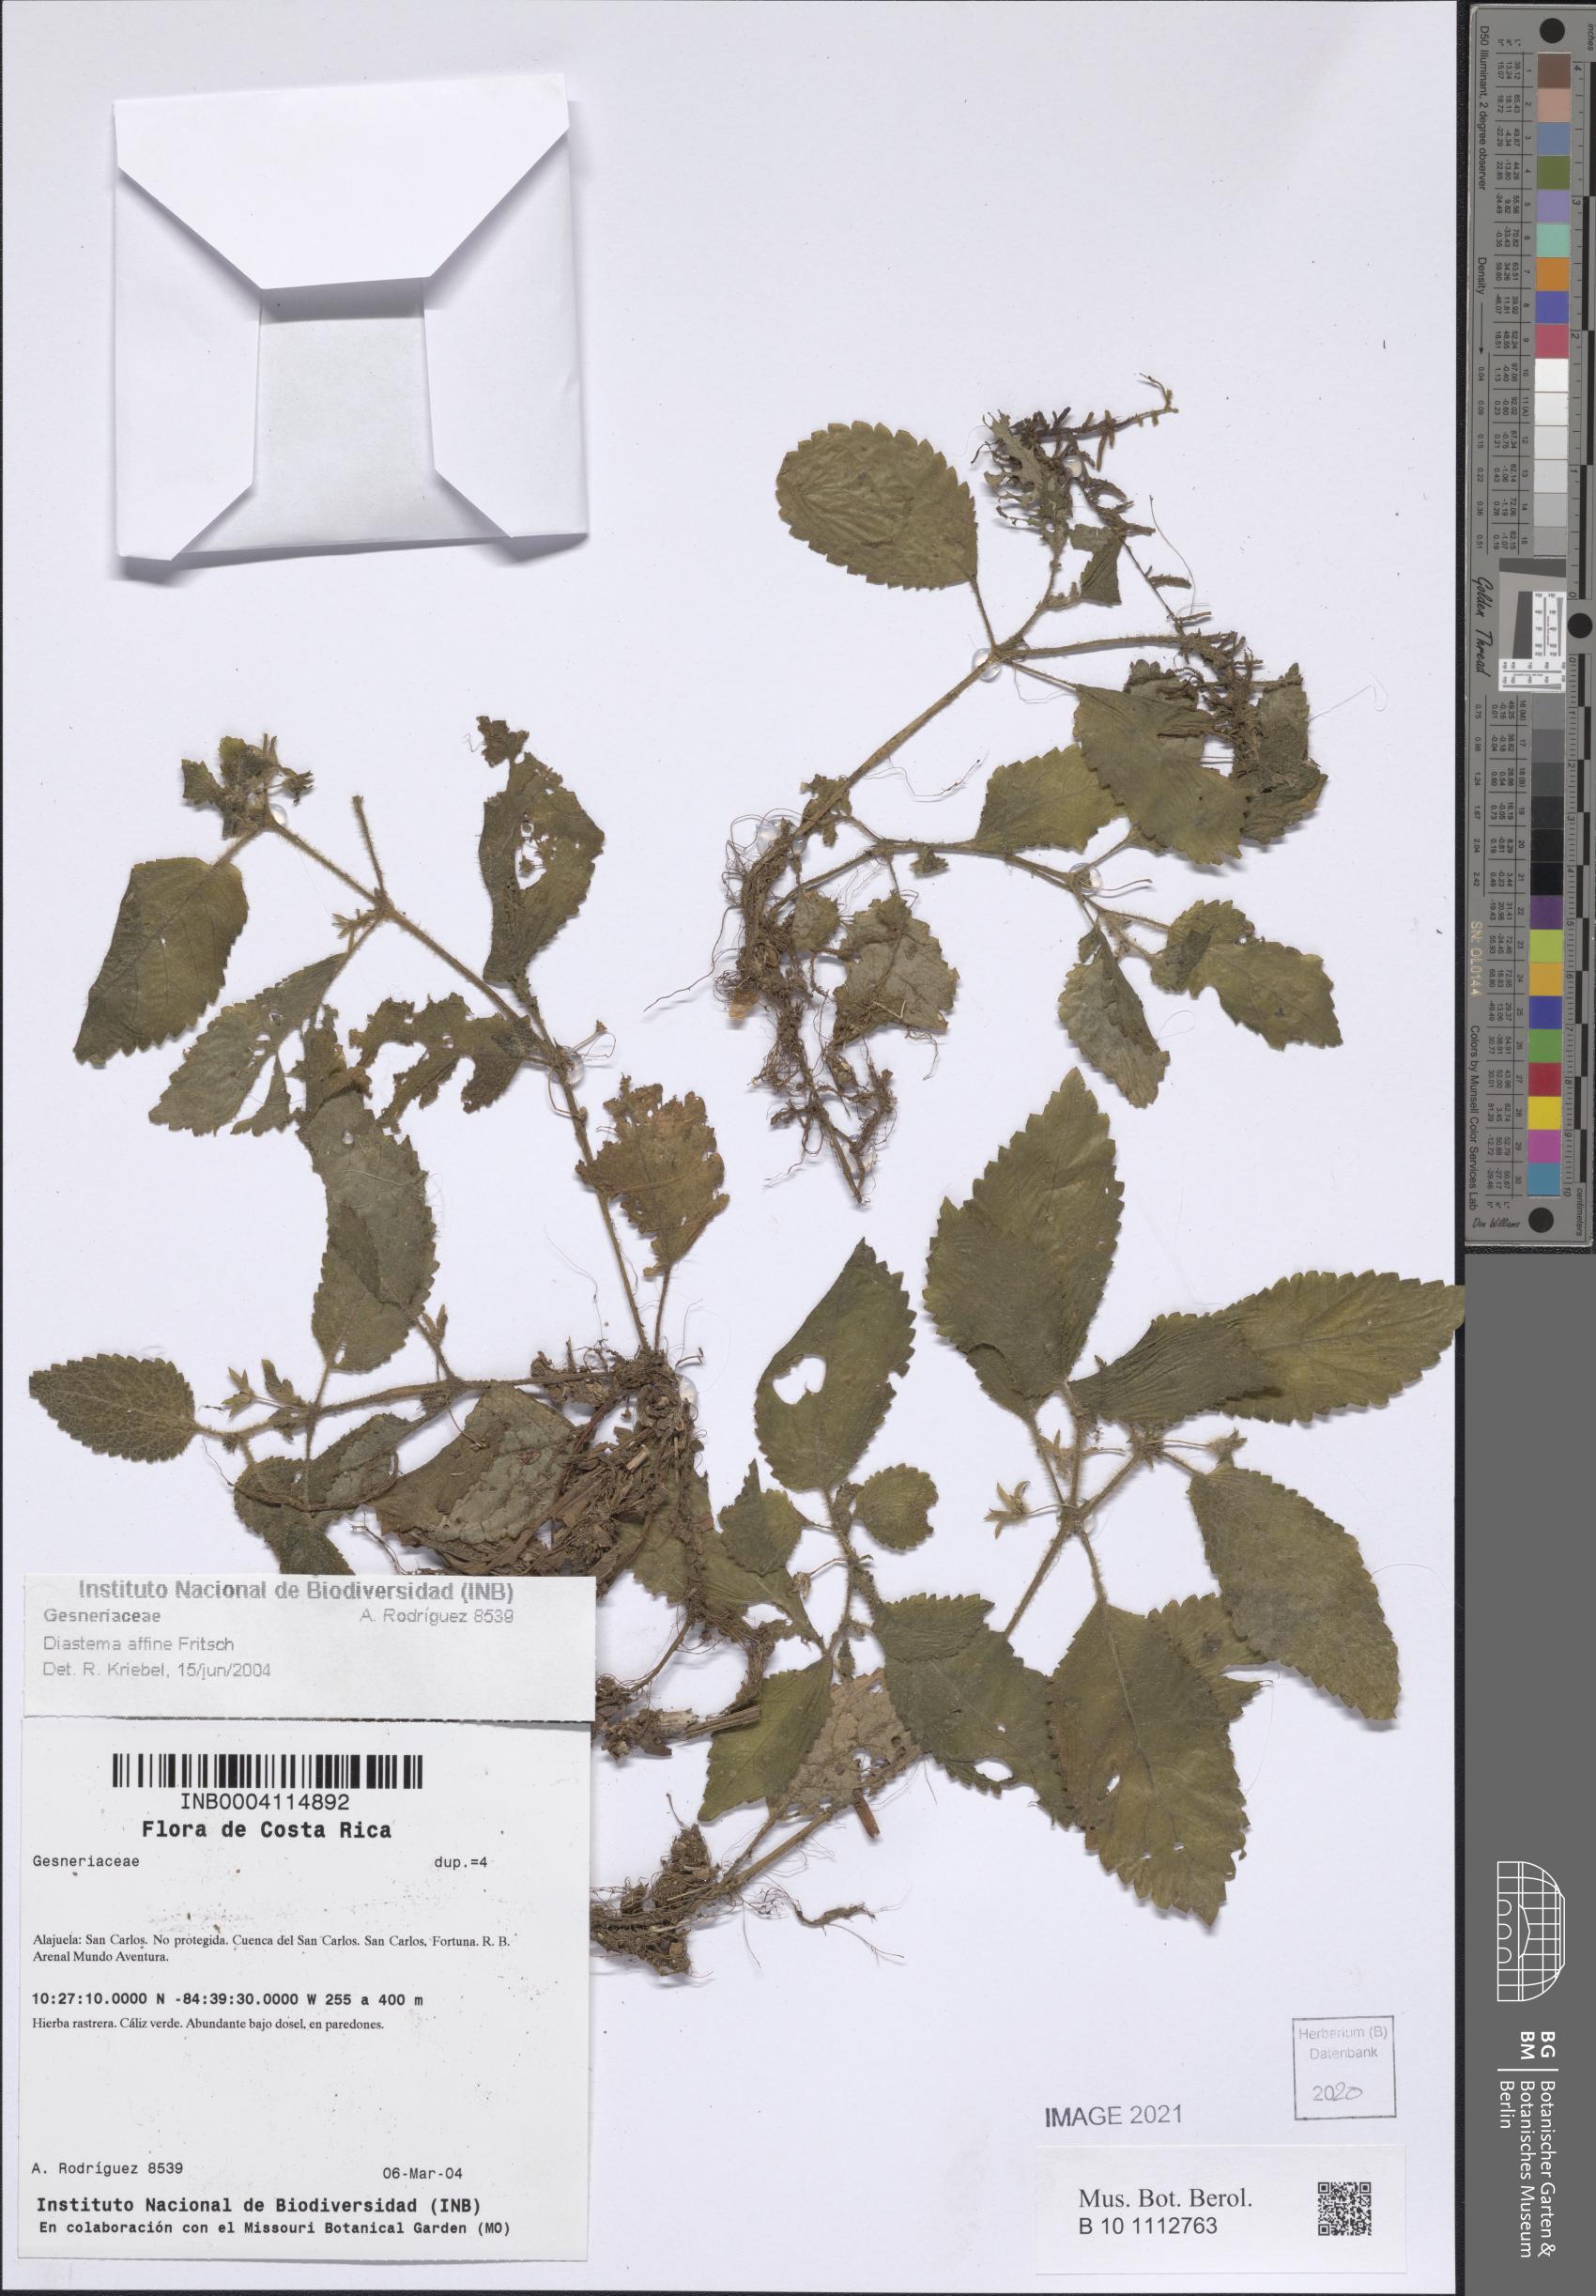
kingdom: Plantae
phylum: Tracheophyta
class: Magnoliopsida
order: Lamiales
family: Gesneriaceae
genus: Diastema
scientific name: Diastema affine
